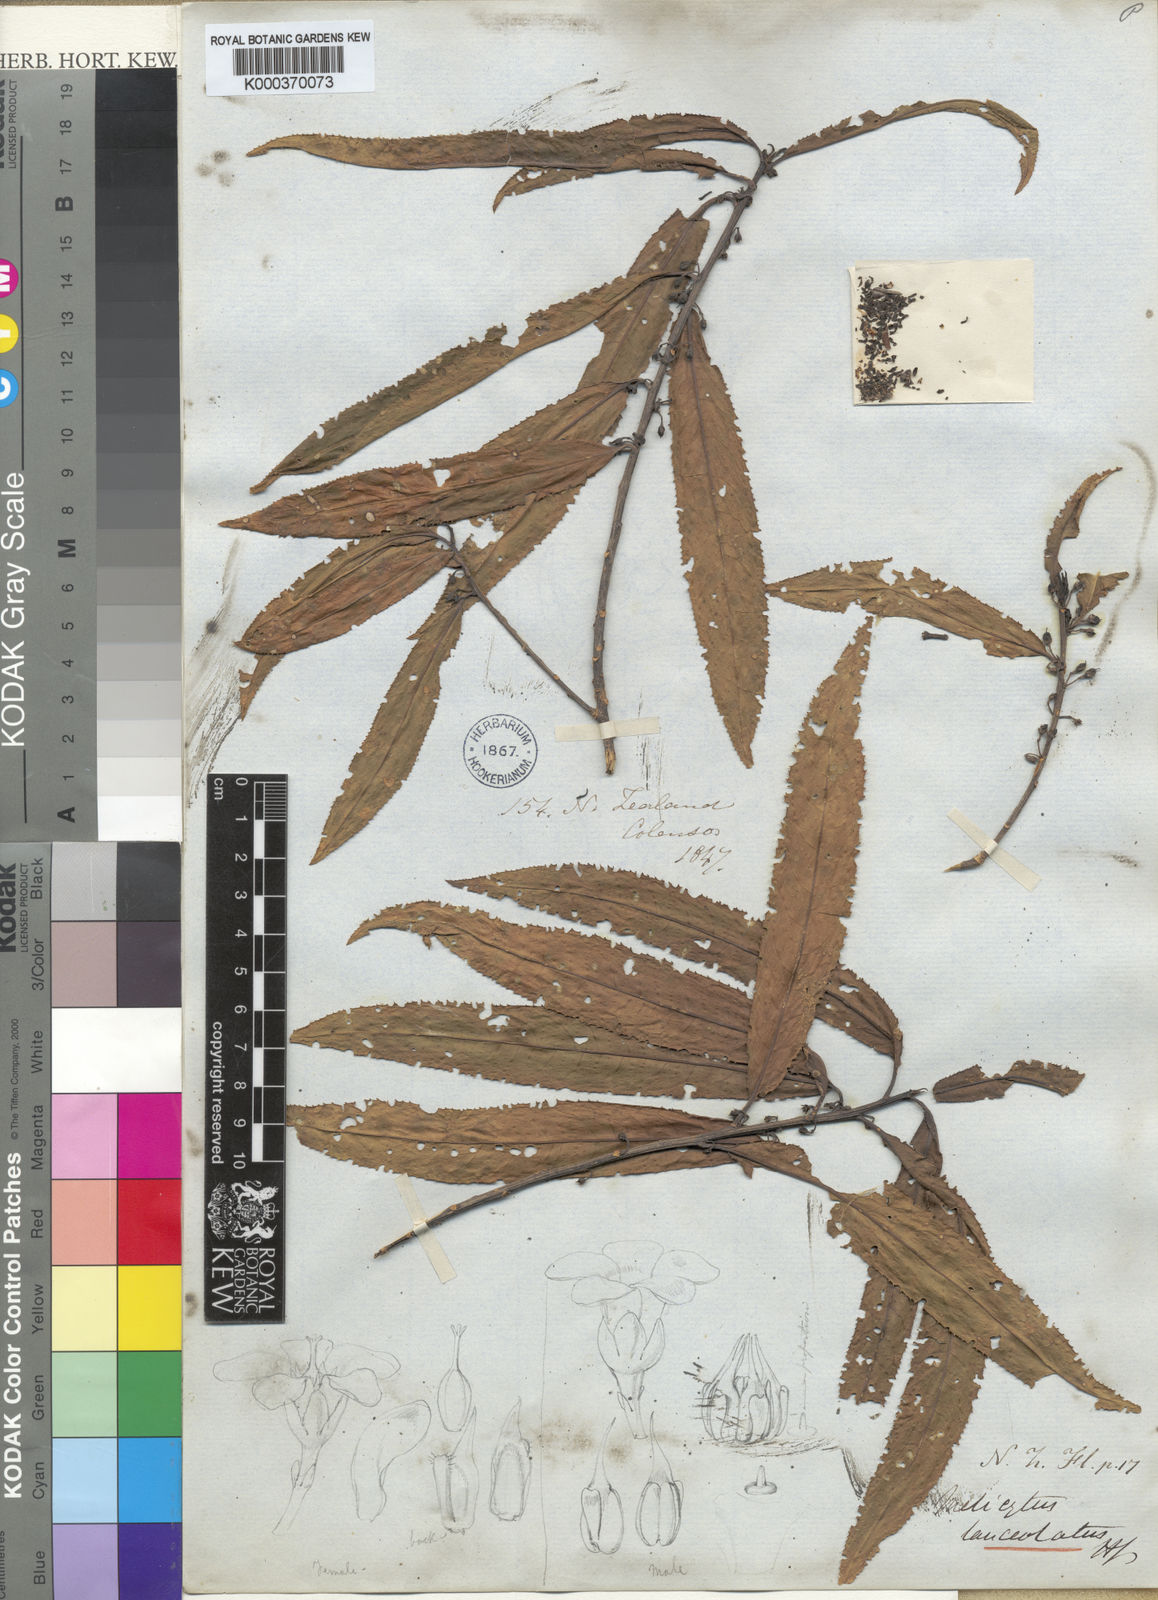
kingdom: Plantae
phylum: Tracheophyta
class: Magnoliopsida
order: Malpighiales
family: Violaceae
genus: Melicytus
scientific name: Melicytus lanceolatus
